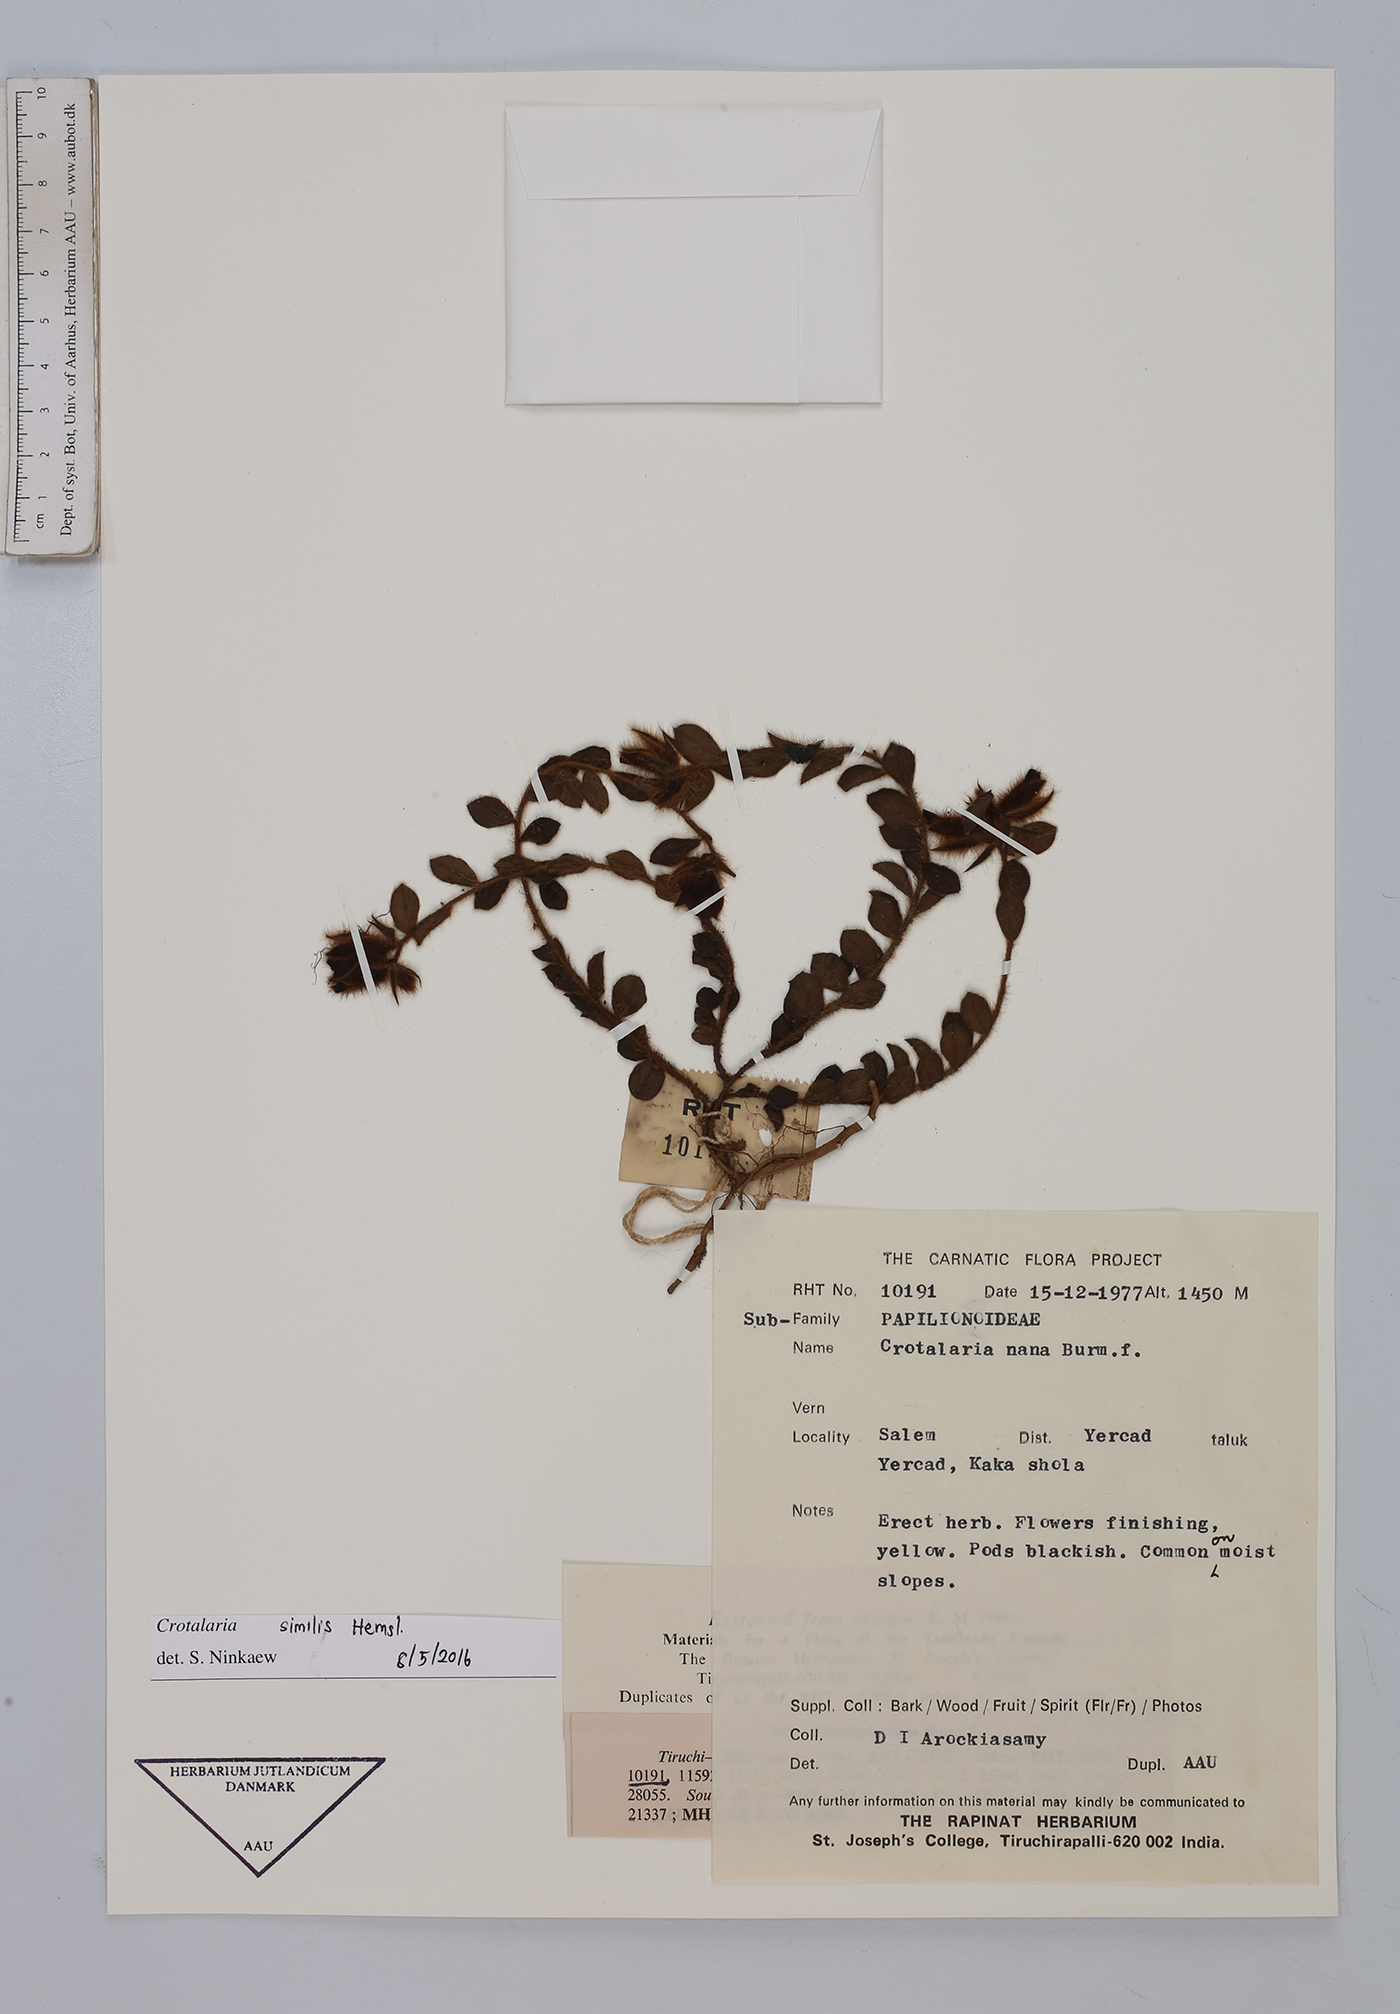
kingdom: Plantae
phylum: Tracheophyta
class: Magnoliopsida
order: Fabales
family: Fabaceae
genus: Crotalaria
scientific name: Crotalaria similis
